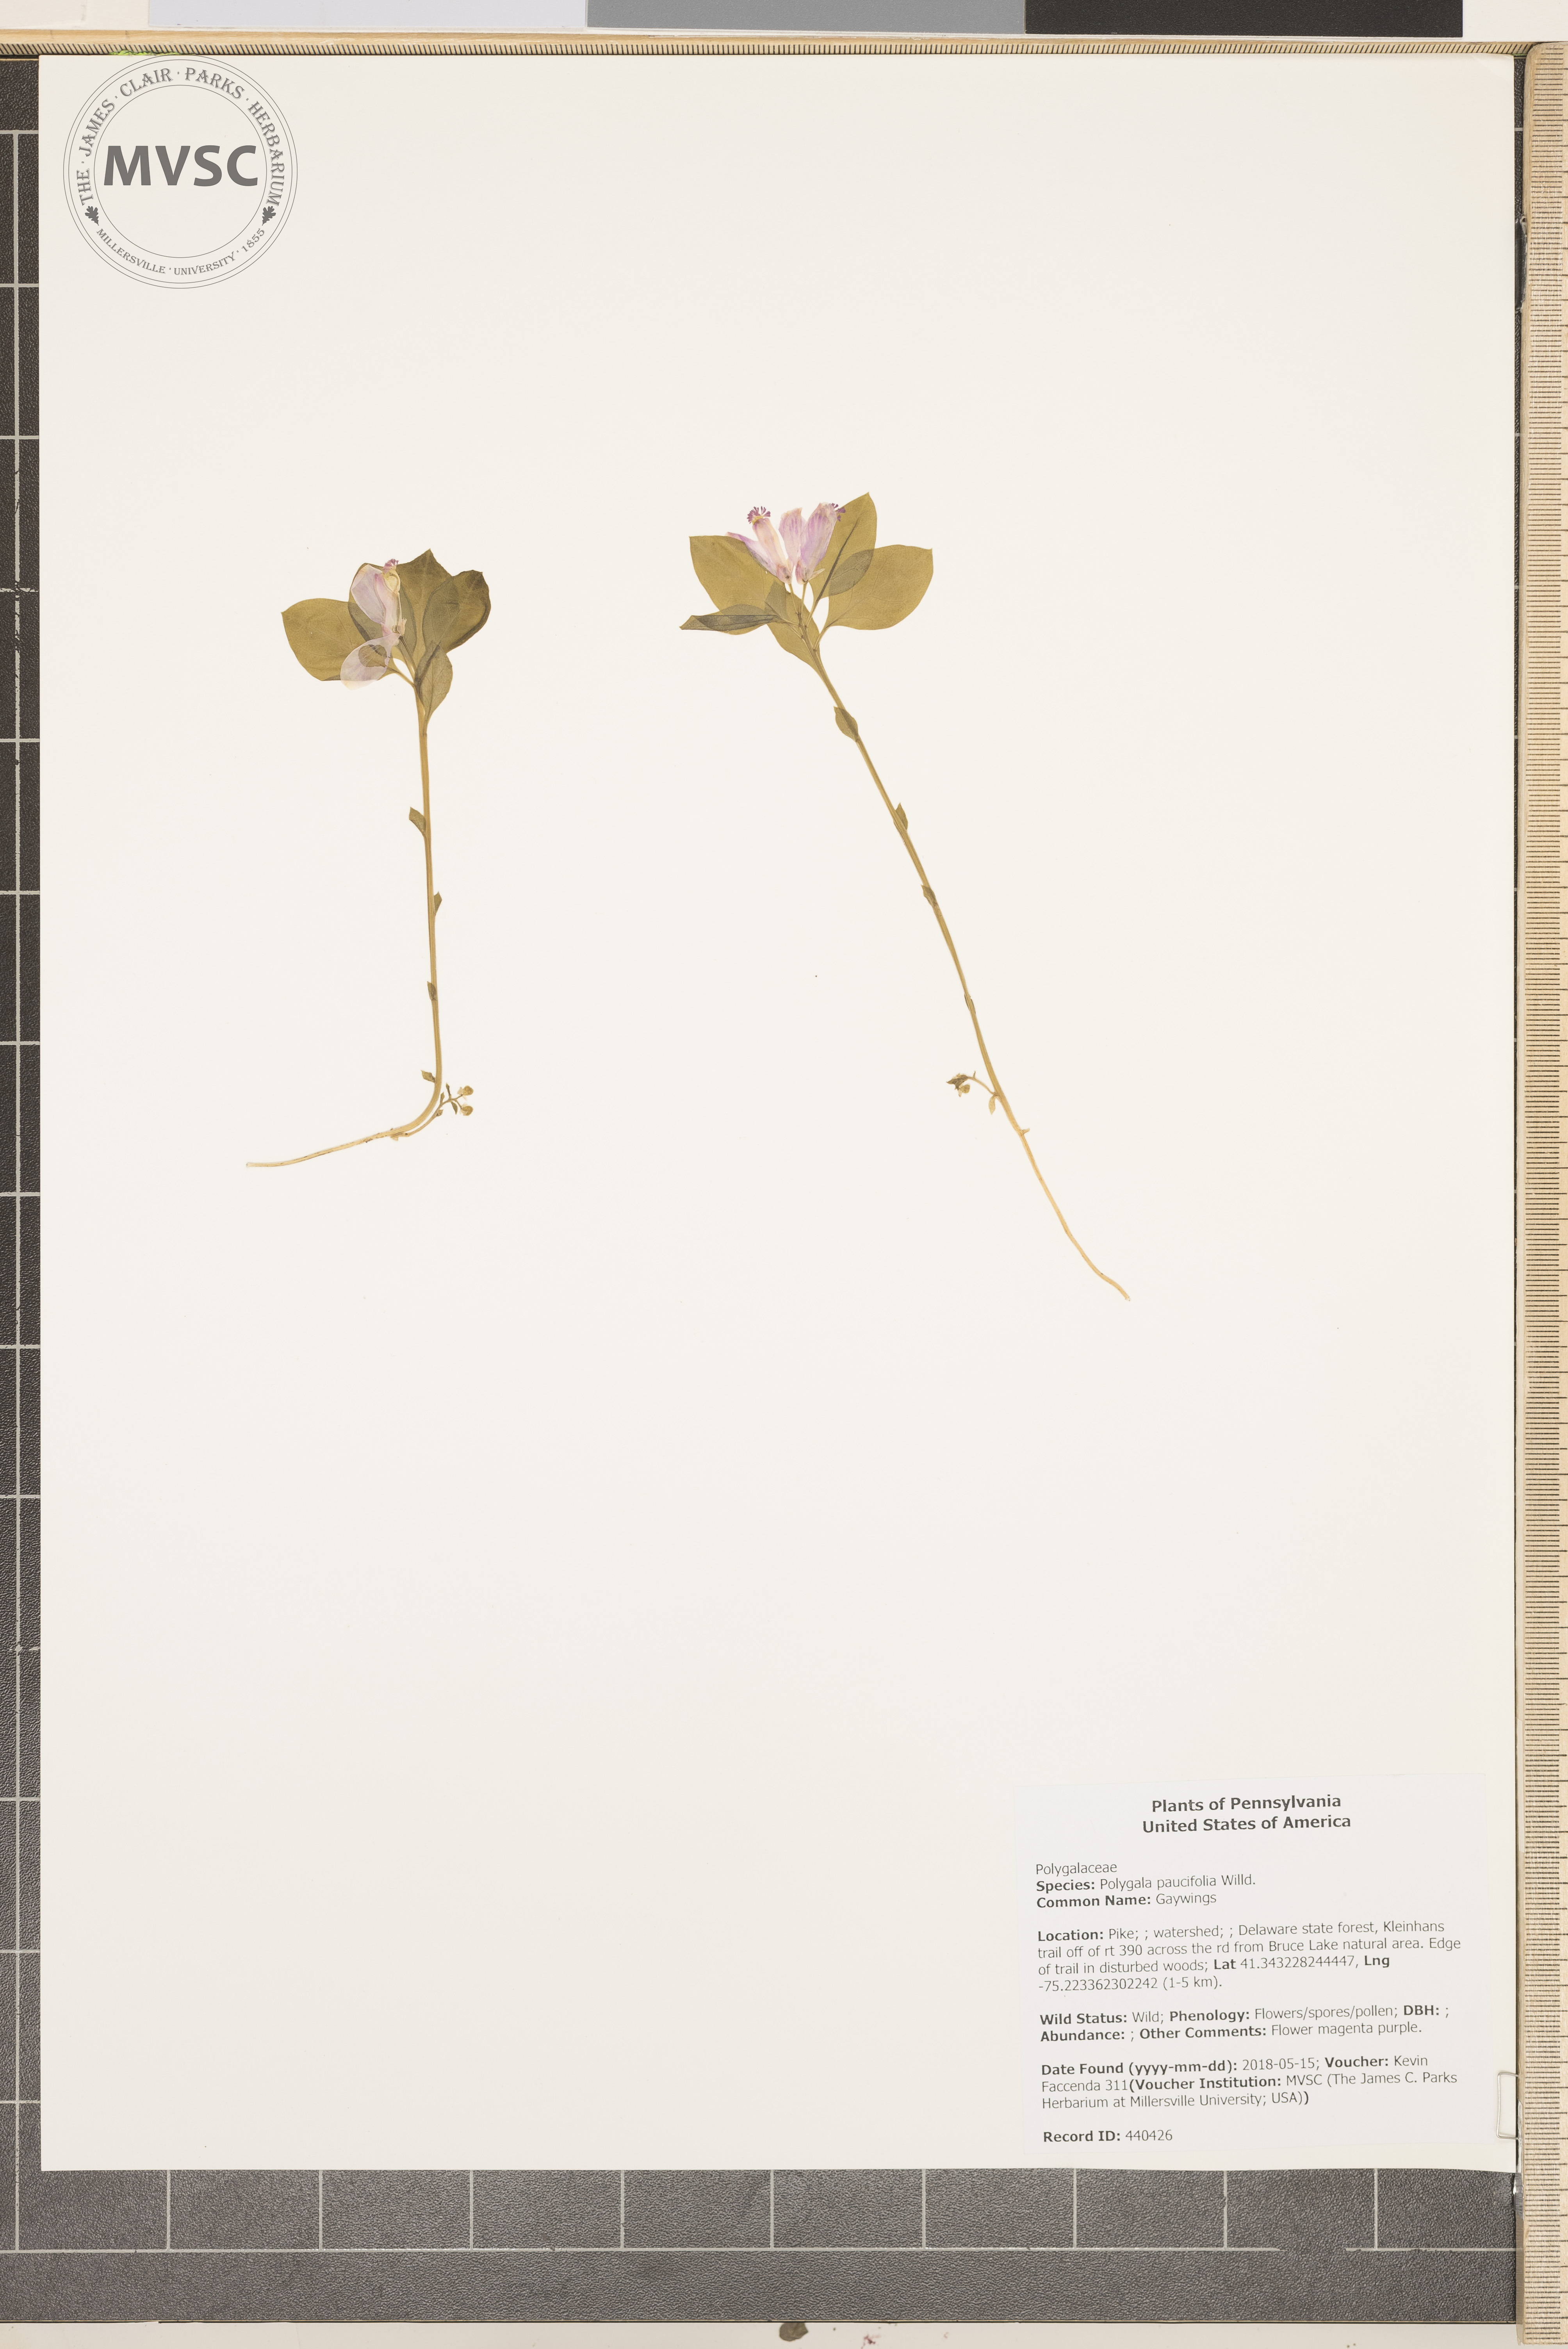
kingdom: Plantae
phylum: Tracheophyta
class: Magnoliopsida
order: Fabales
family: Polygalaceae
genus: Polygaloides
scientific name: Polygaloides paucifolia
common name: Gaywings
